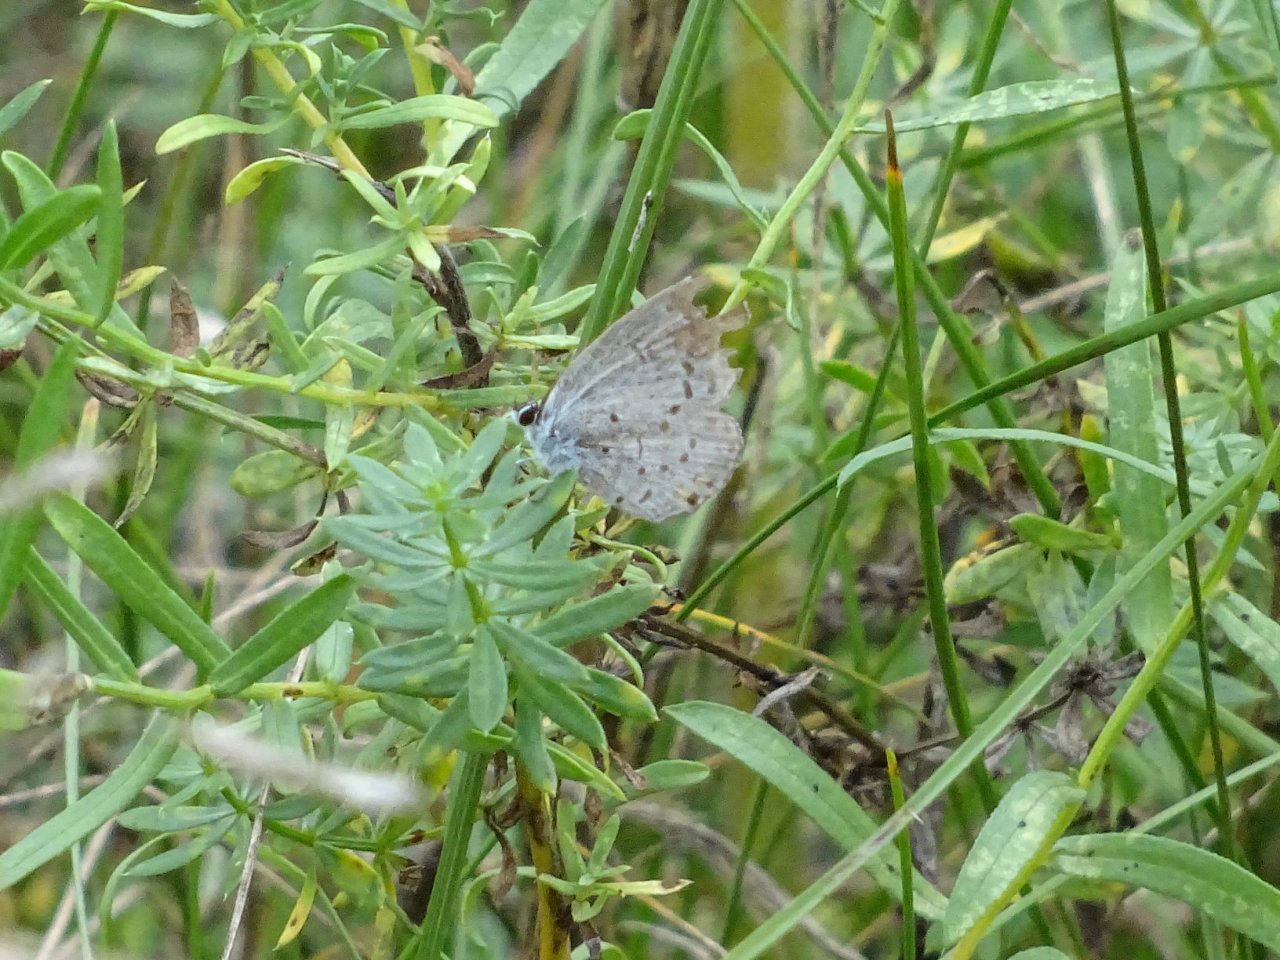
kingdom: Animalia
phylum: Arthropoda
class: Insecta
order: Lepidoptera
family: Lycaenidae
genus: Elkalyce
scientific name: Elkalyce comyntas
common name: Eastern Tailed-Blue
